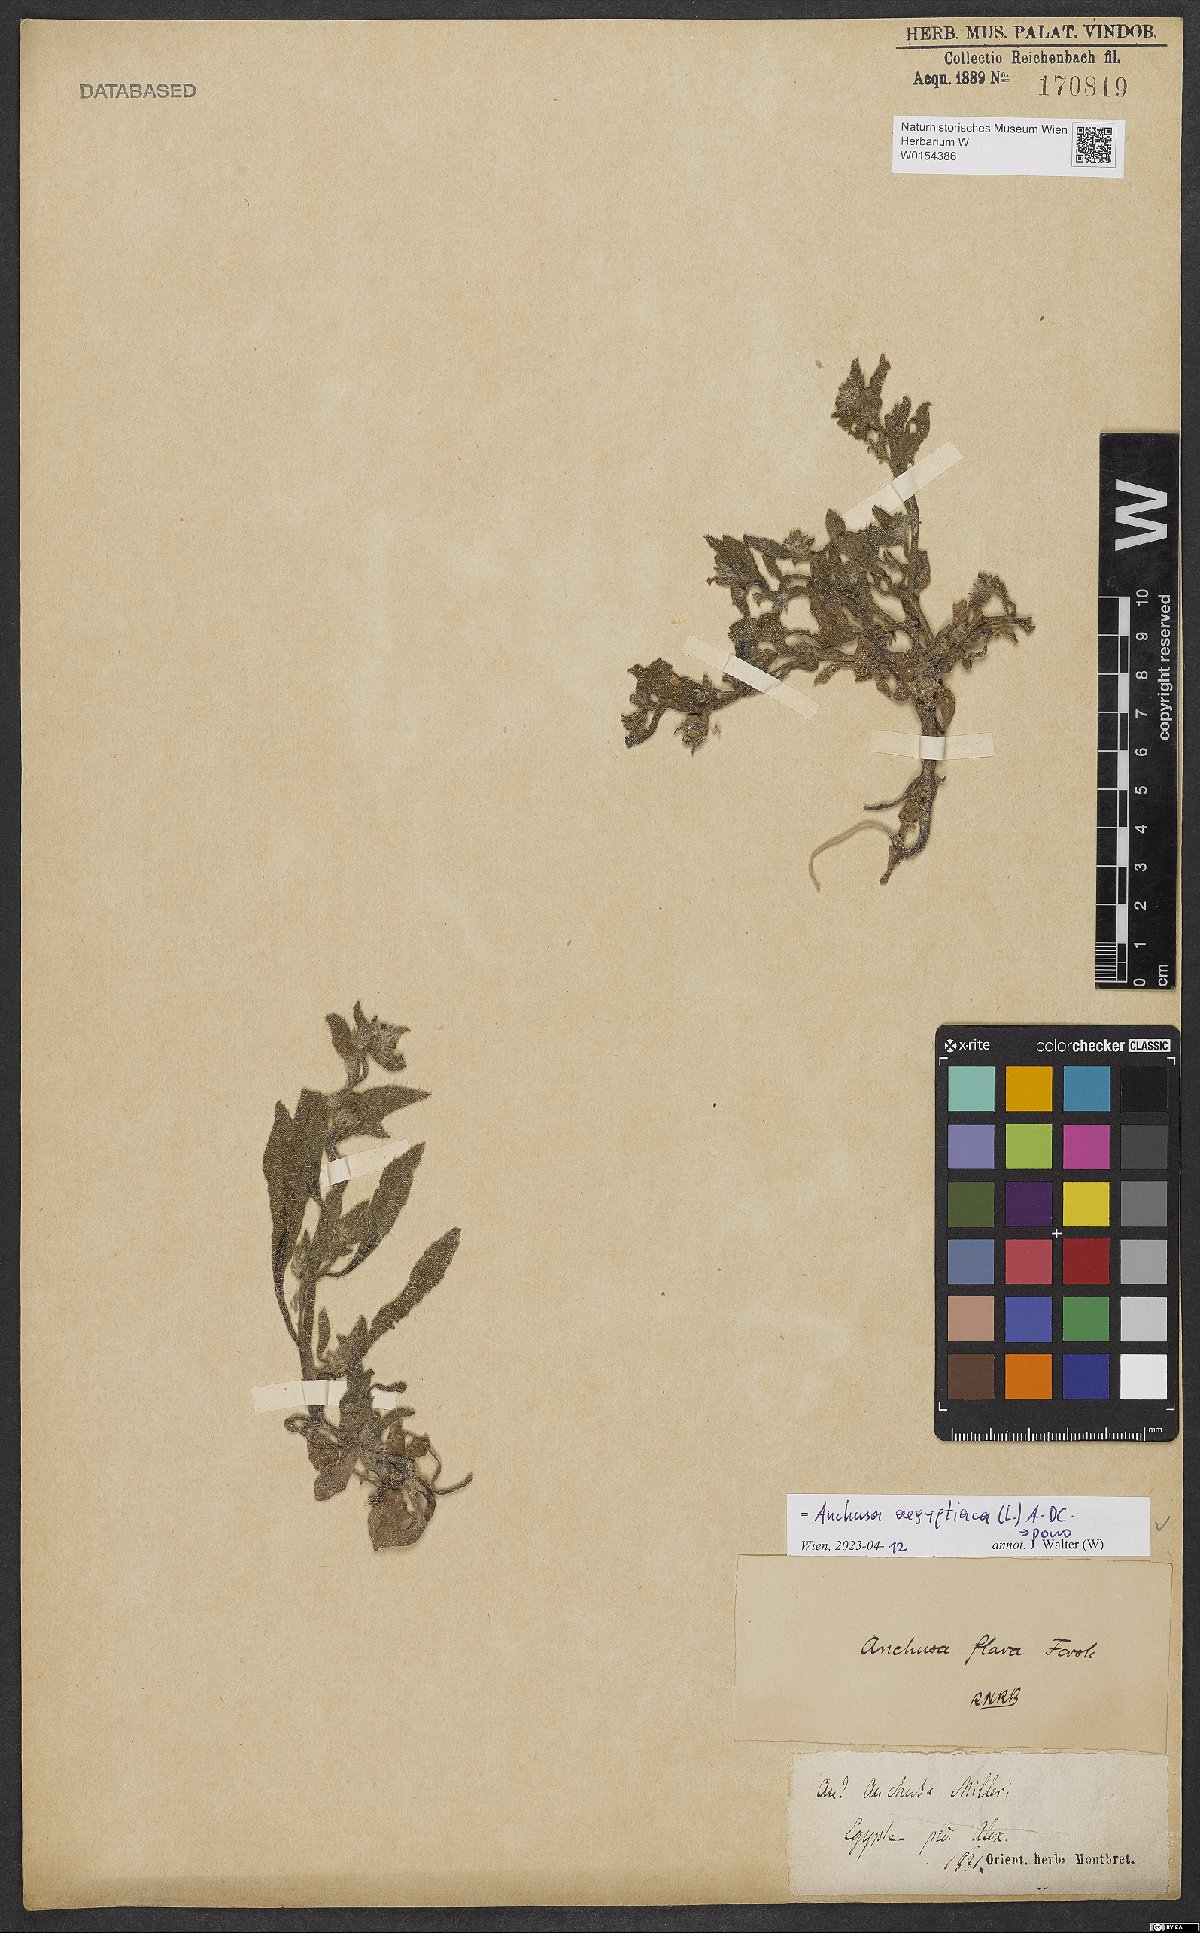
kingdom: Plantae
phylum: Tracheophyta
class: Magnoliopsida
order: Boraginales
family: Boraginaceae
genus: Lycopsis
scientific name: Lycopsis aegyptiaca
